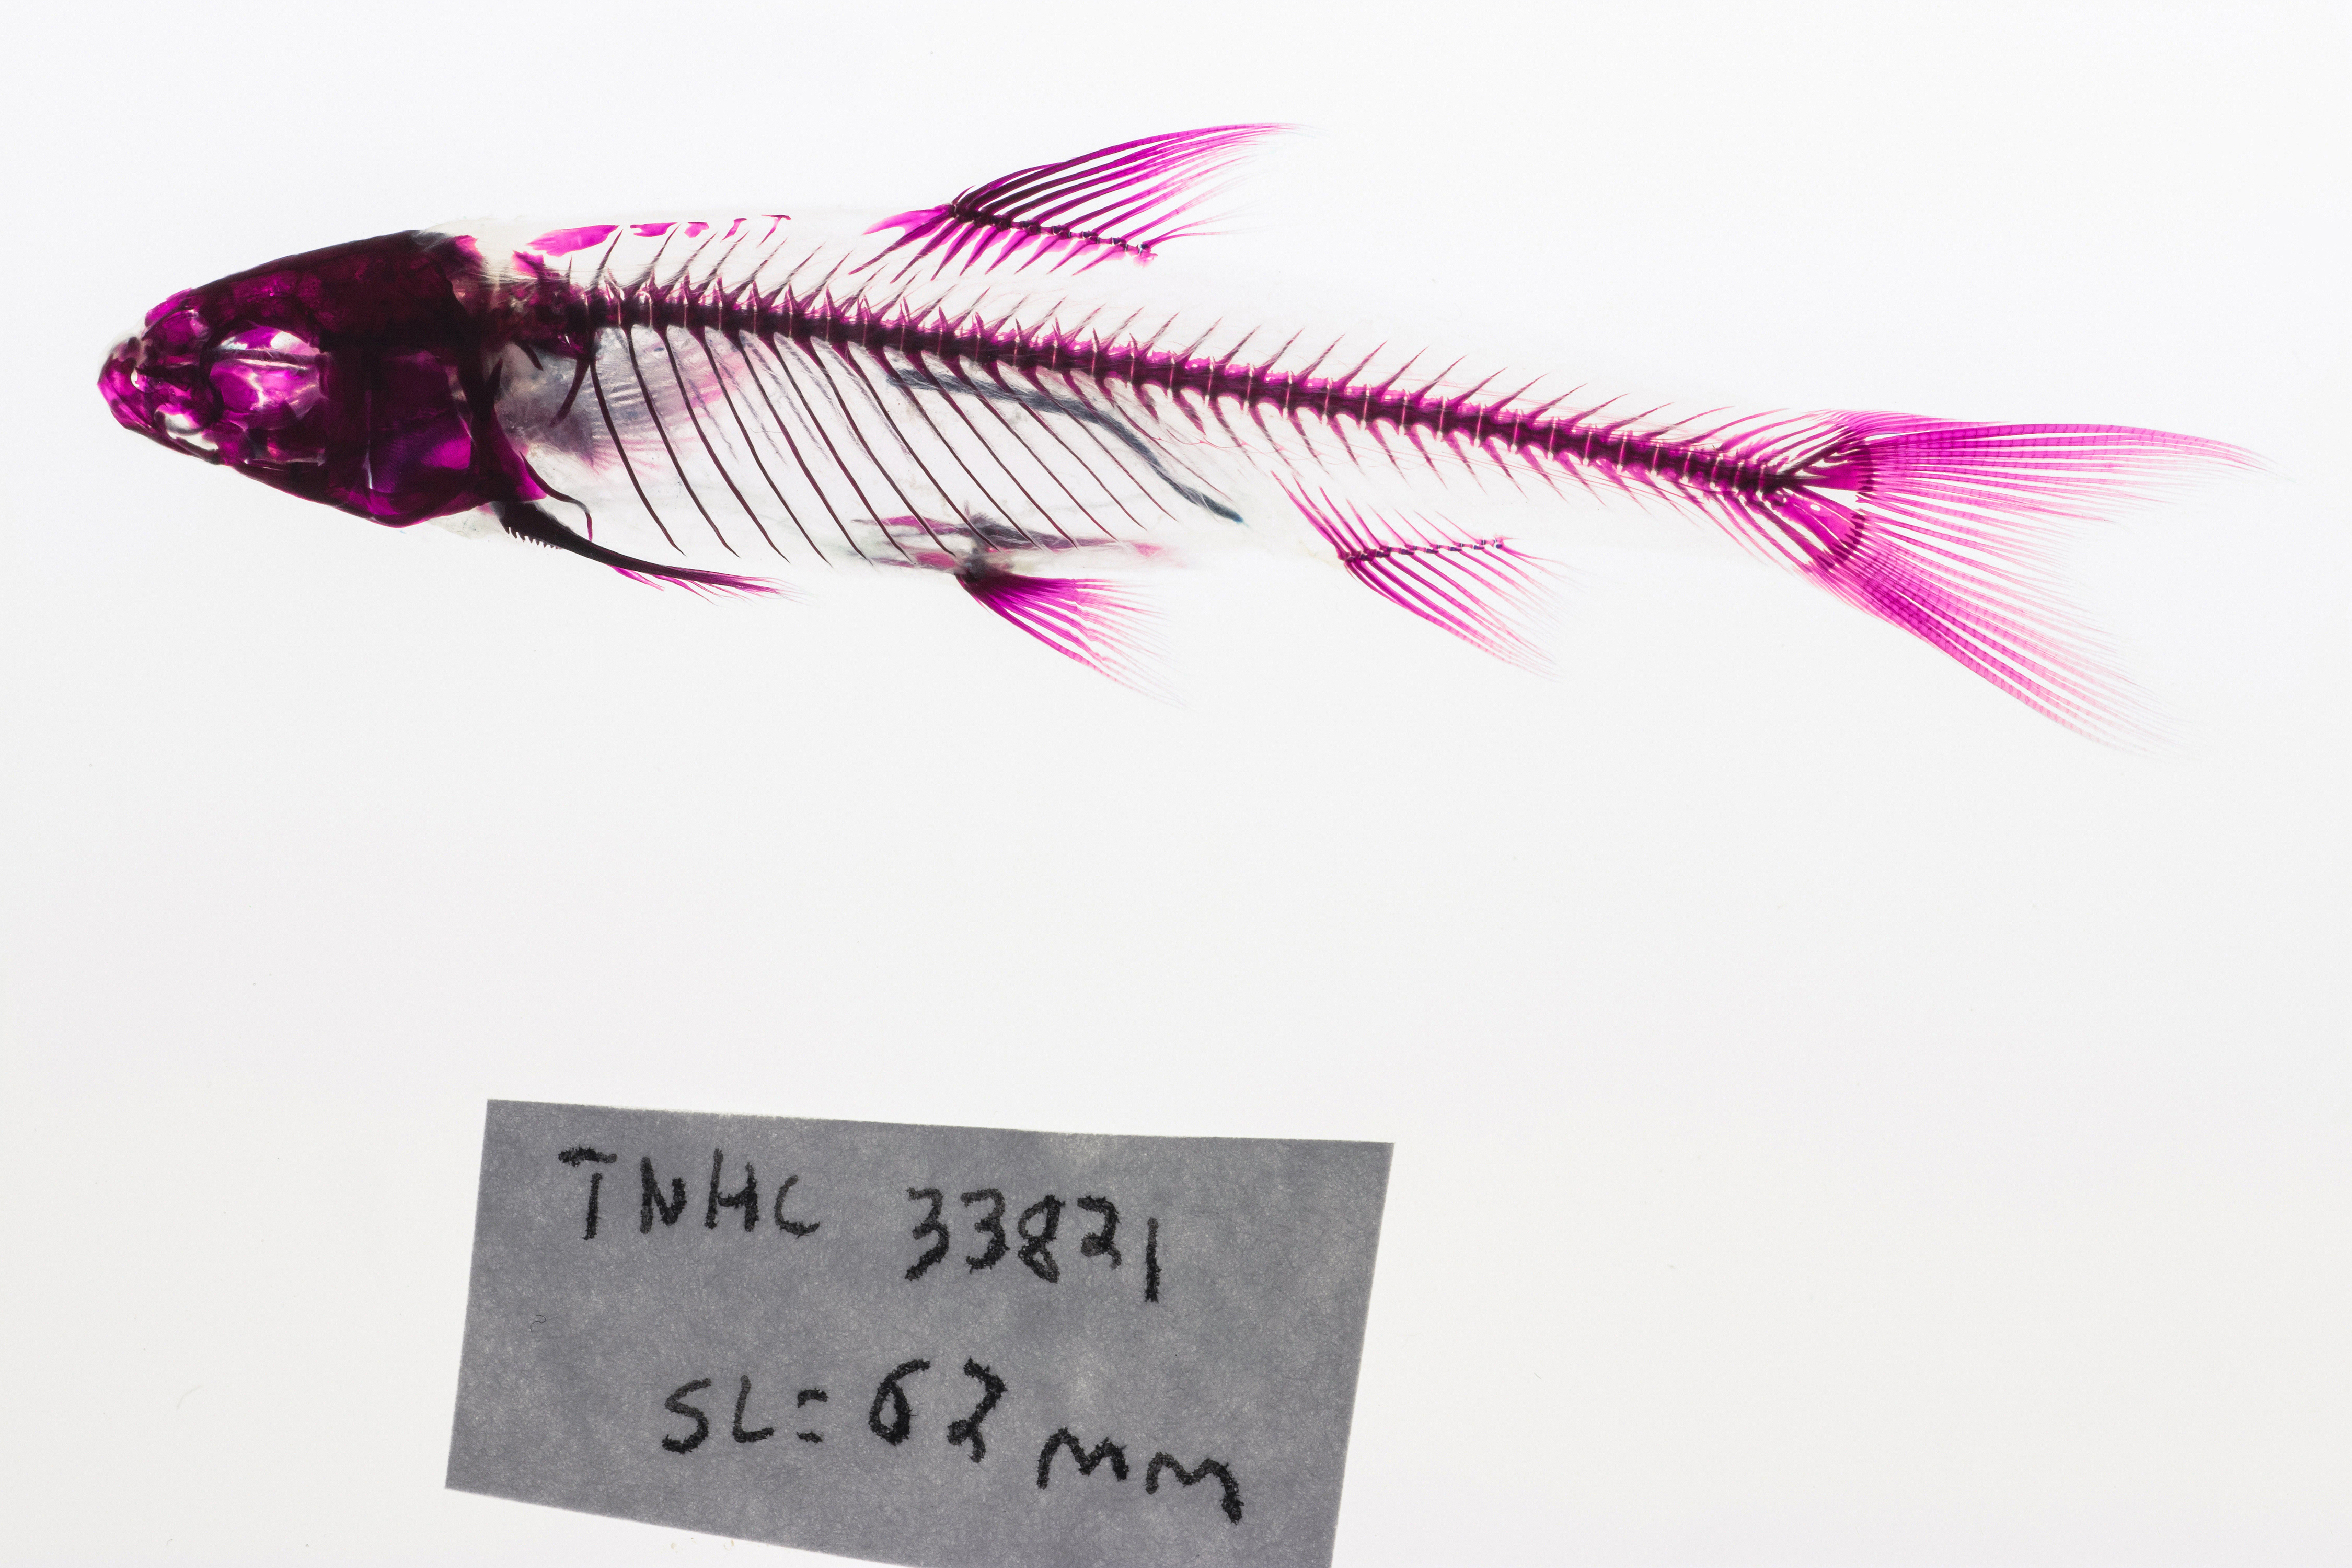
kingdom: Animalia
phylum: Chordata
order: Cypriniformes
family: Cyprinidae
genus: Hybognathus
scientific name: Hybognathus nuchalis
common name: Mississippi silvery minnow
